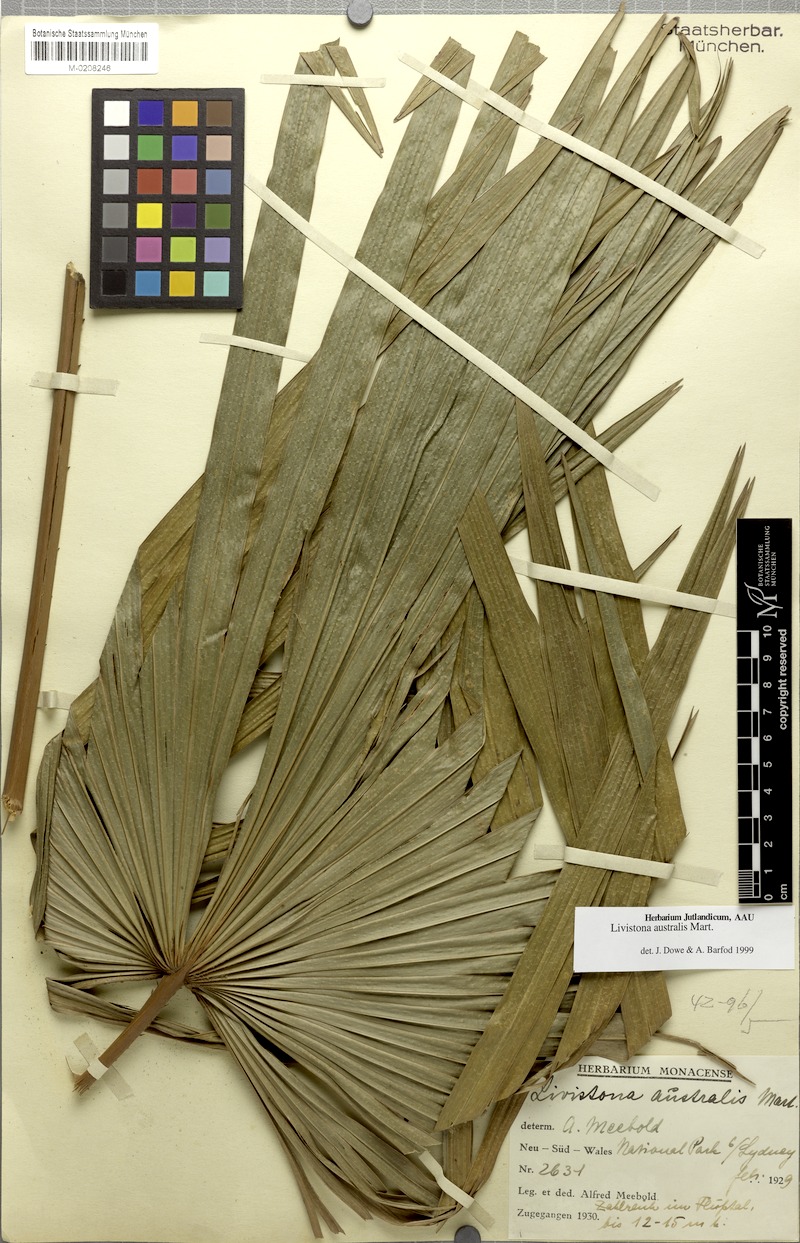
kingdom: Plantae
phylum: Tracheophyta
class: Liliopsida
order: Arecales
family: Arecaceae
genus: Livistona
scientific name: Livistona australis
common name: Cabbage fan palm
